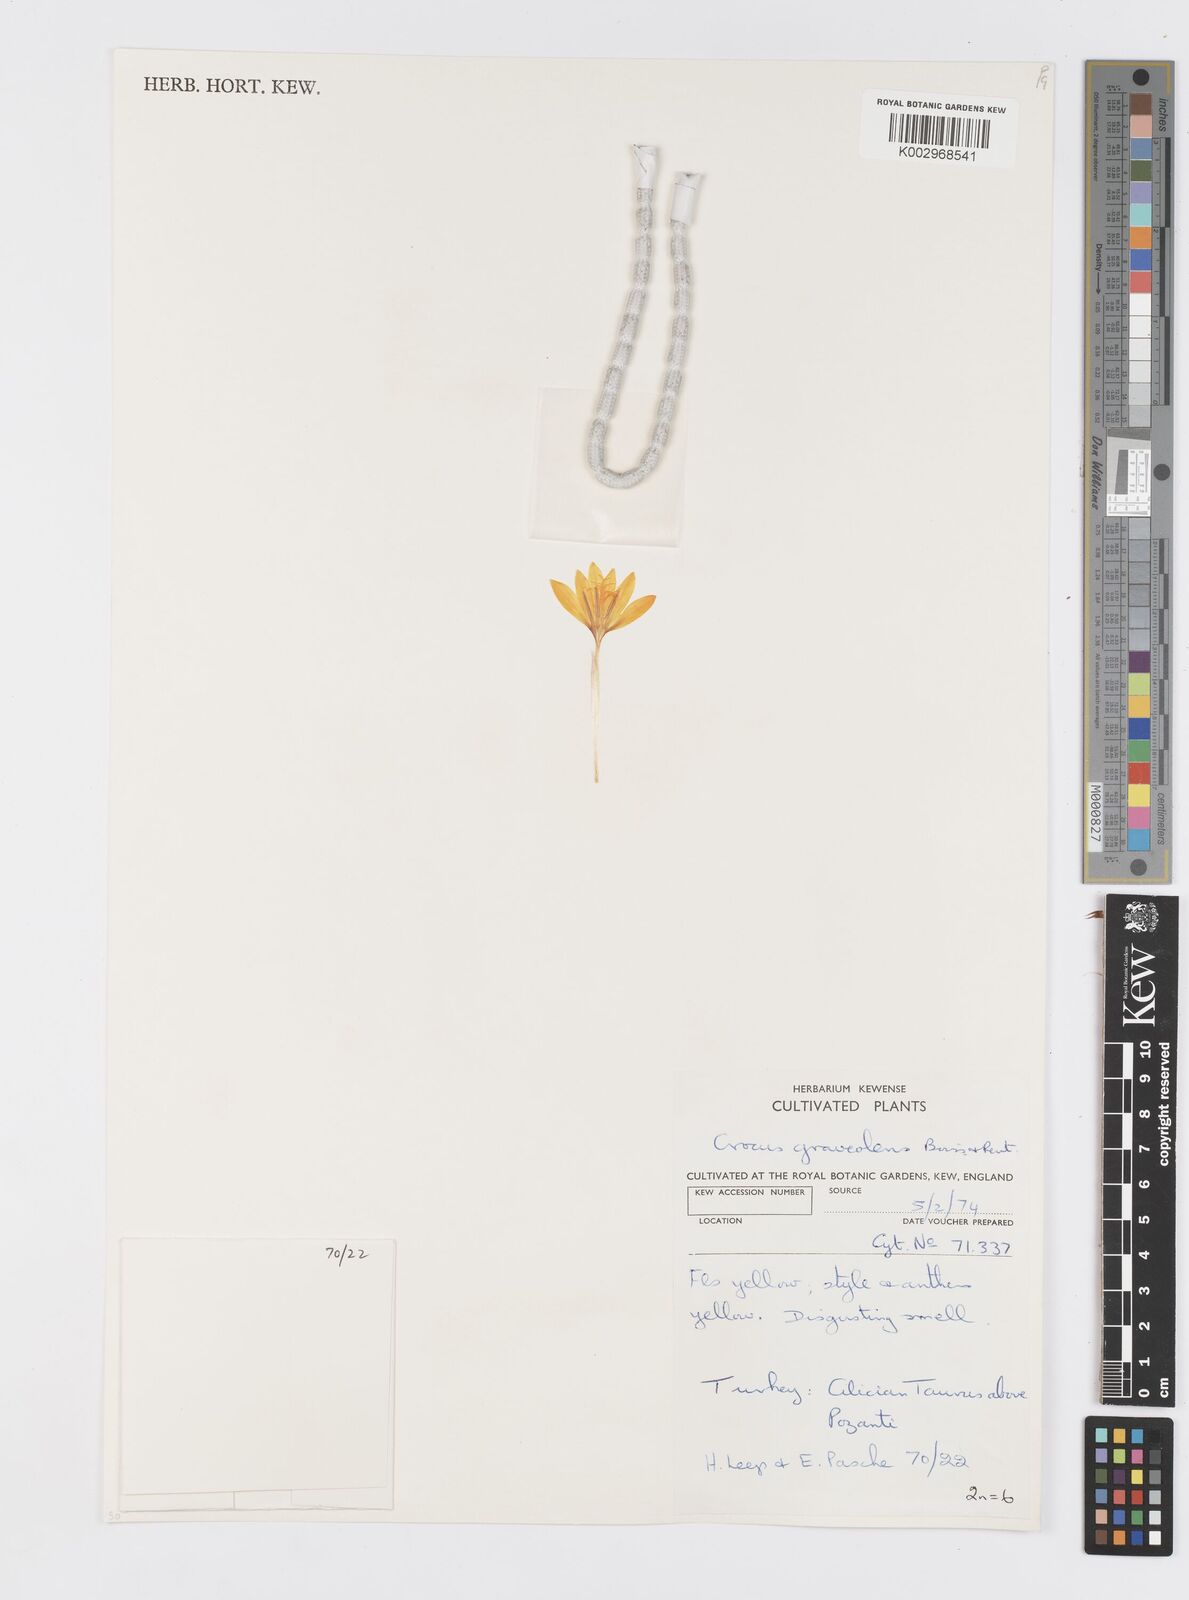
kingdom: Plantae
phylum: Tracheophyta
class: Liliopsida
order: Asparagales
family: Iridaceae
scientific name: Iridaceae
